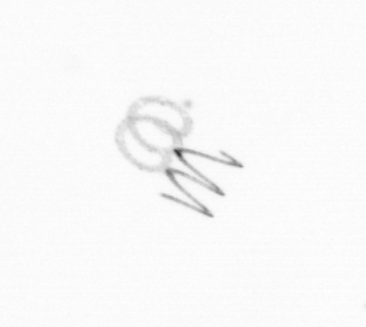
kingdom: Chromista
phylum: Ochrophyta
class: Bacillariophyceae
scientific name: Bacillariophyceae
